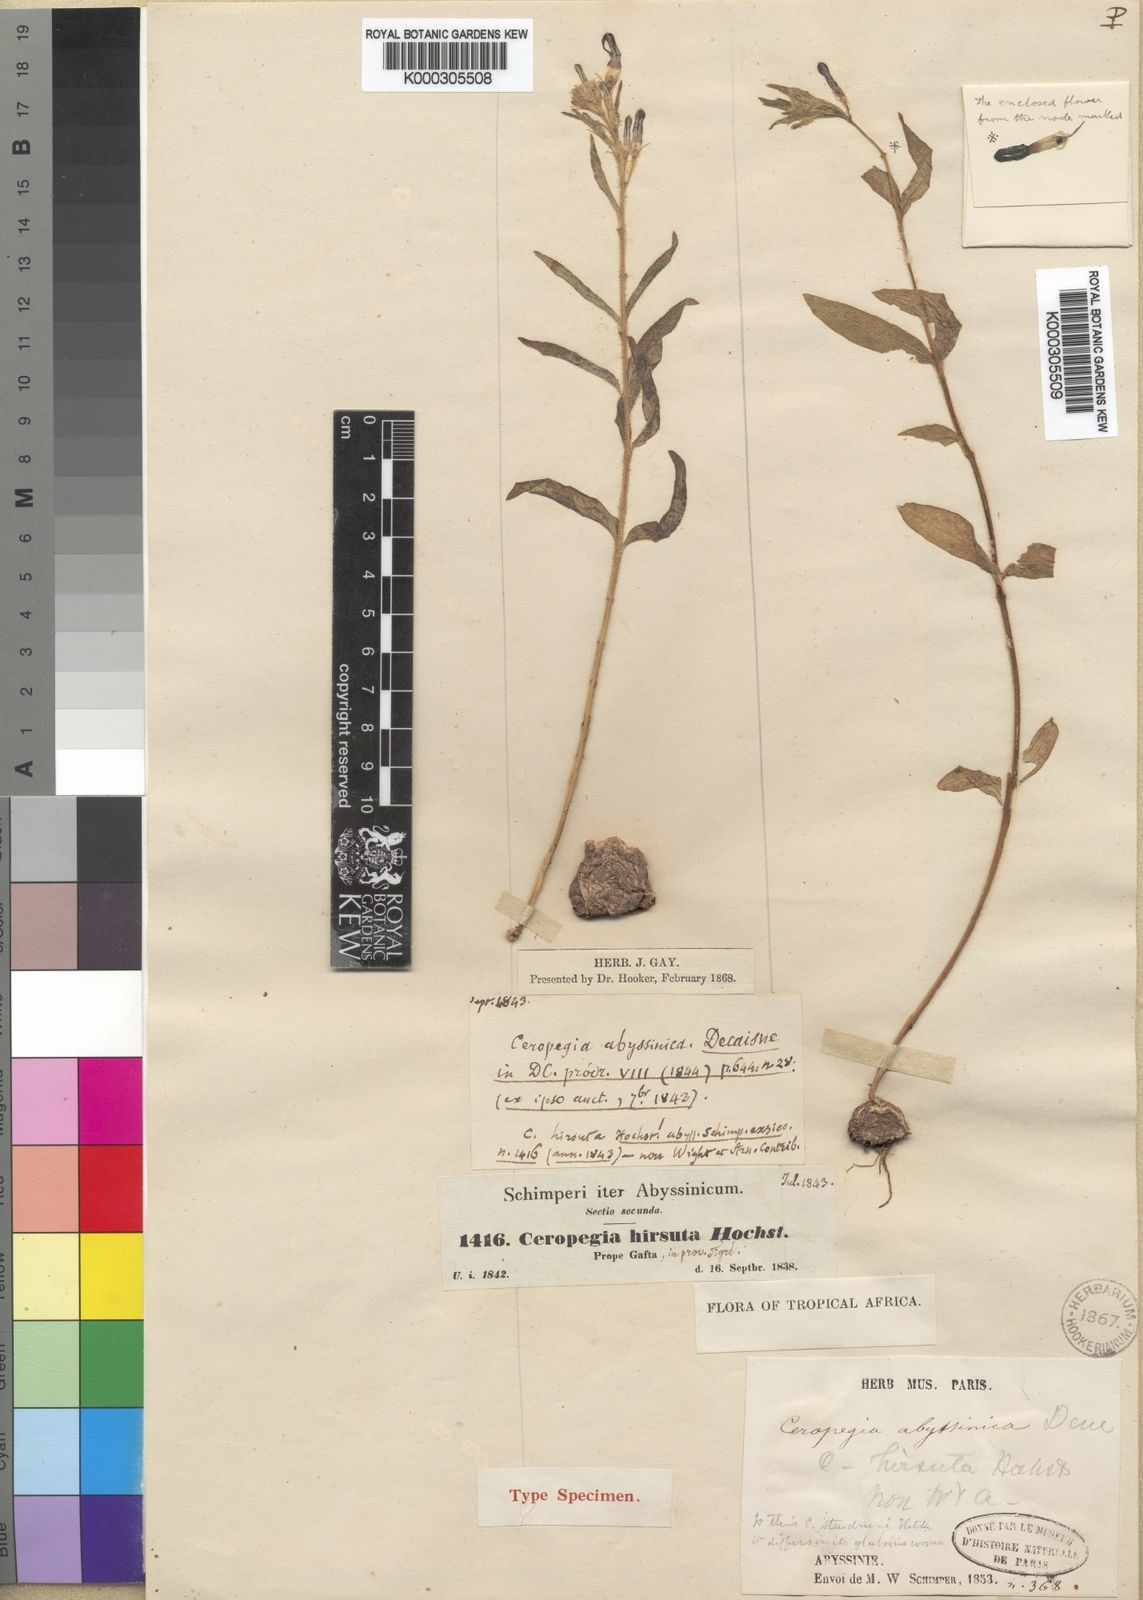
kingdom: Plantae
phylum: Tracheophyta
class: Magnoliopsida
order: Gentianales
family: Apocynaceae
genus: Ceropegia
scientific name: Ceropegia abyssinica
